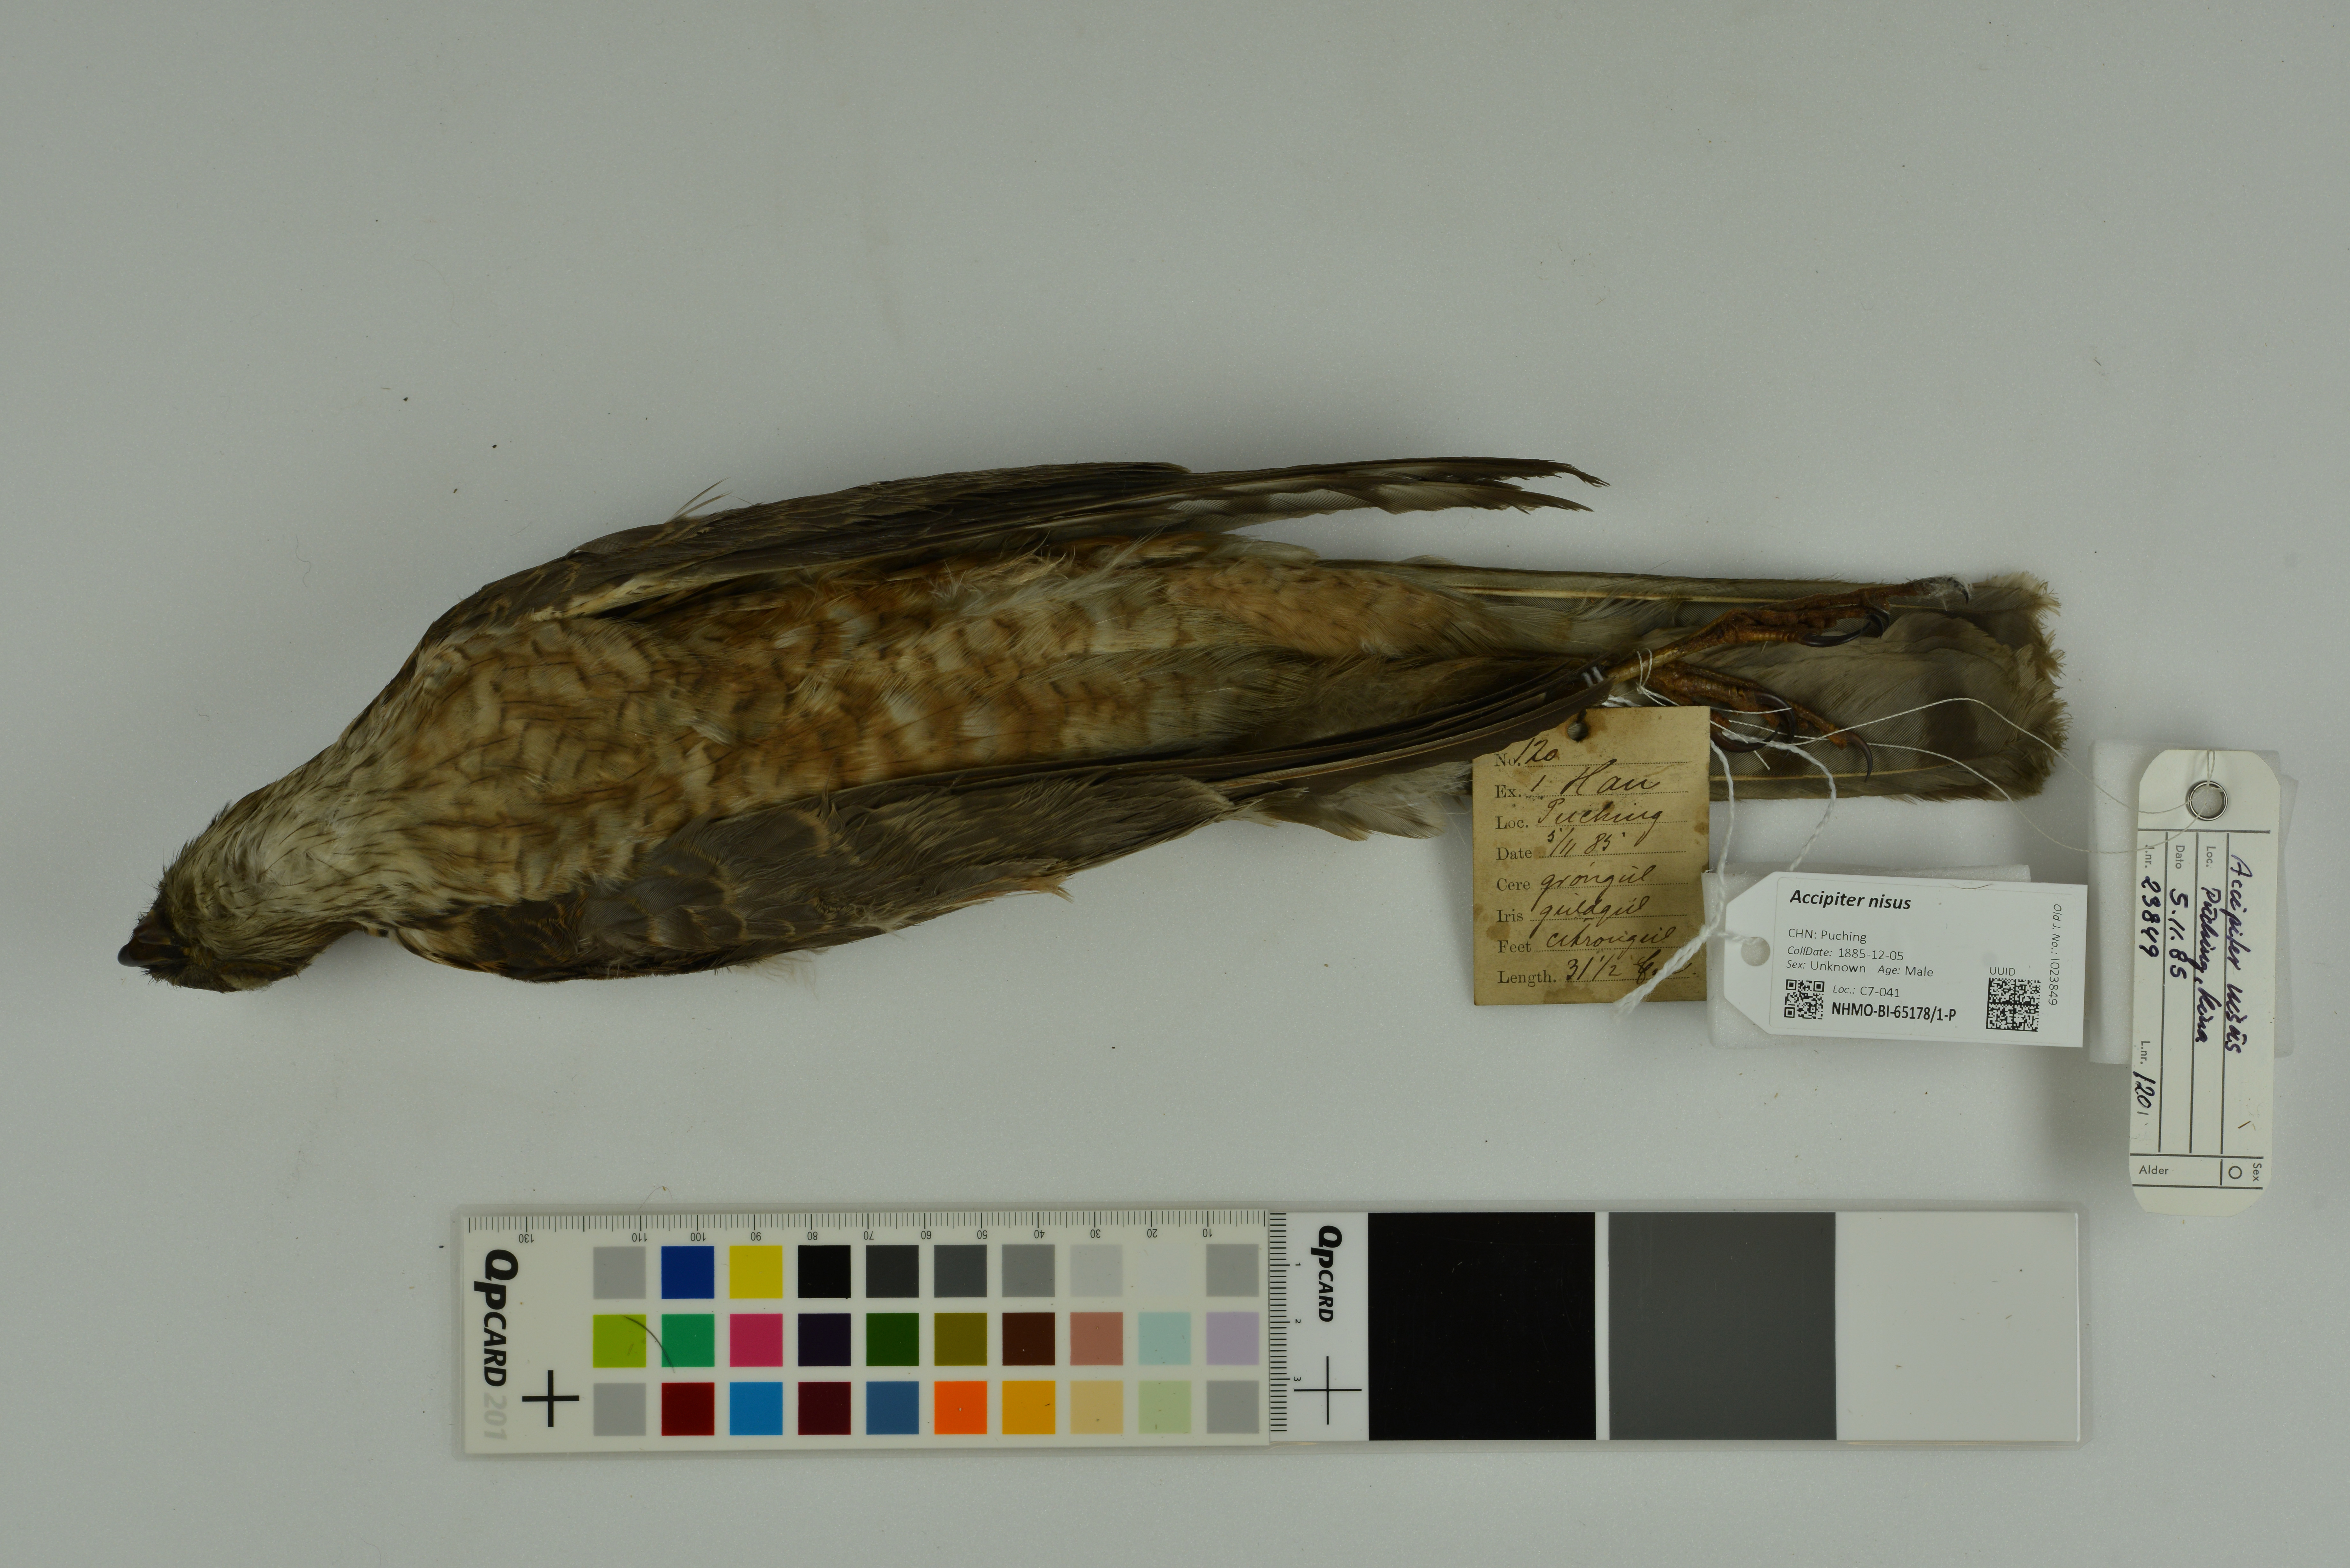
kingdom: Animalia
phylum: Chordata
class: Aves
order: Accipitriformes
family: Accipitridae
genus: Accipiter
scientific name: Accipiter nisus
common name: Eurasian sparrowhawk
